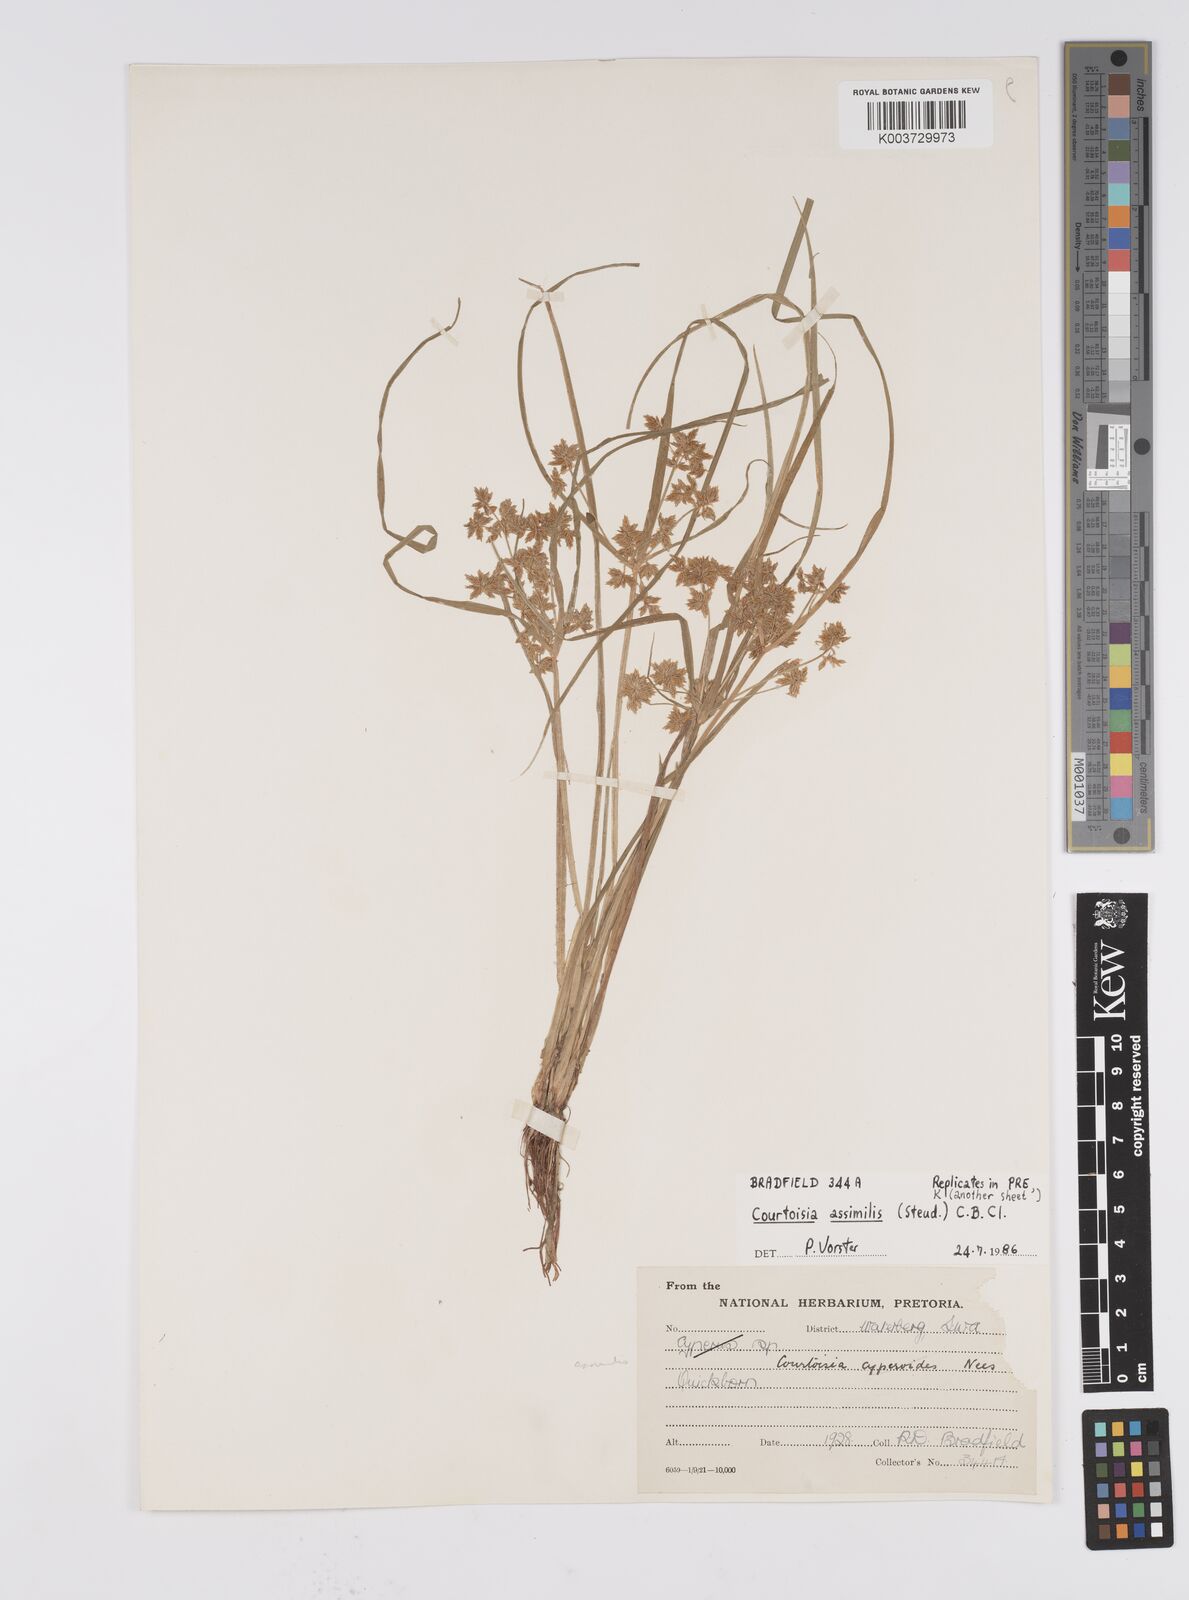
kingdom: Plantae
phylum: Tracheophyta
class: Liliopsida
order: Poales
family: Cyperaceae
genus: Cyperus
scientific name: Cyperus assimilis
